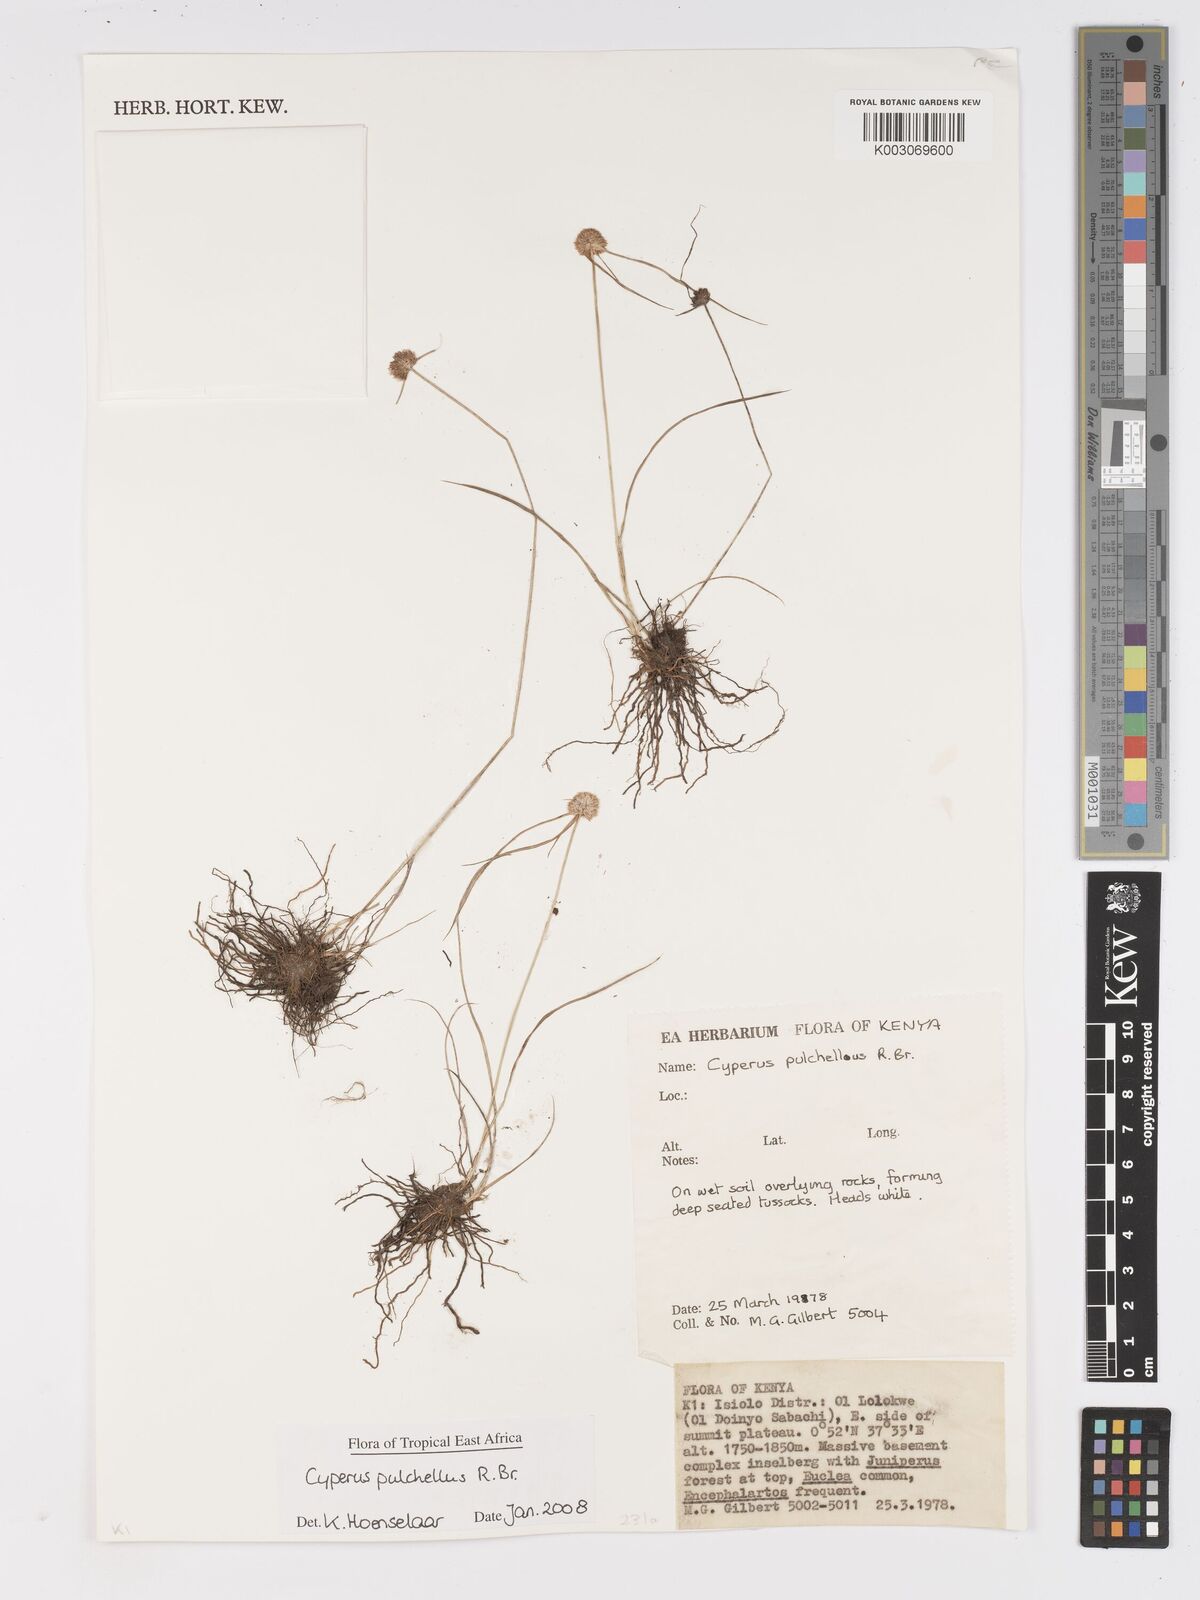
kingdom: Plantae
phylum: Tracheophyta
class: Liliopsida
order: Poales
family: Cyperaceae
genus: Cyperus
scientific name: Cyperus pulchellus
